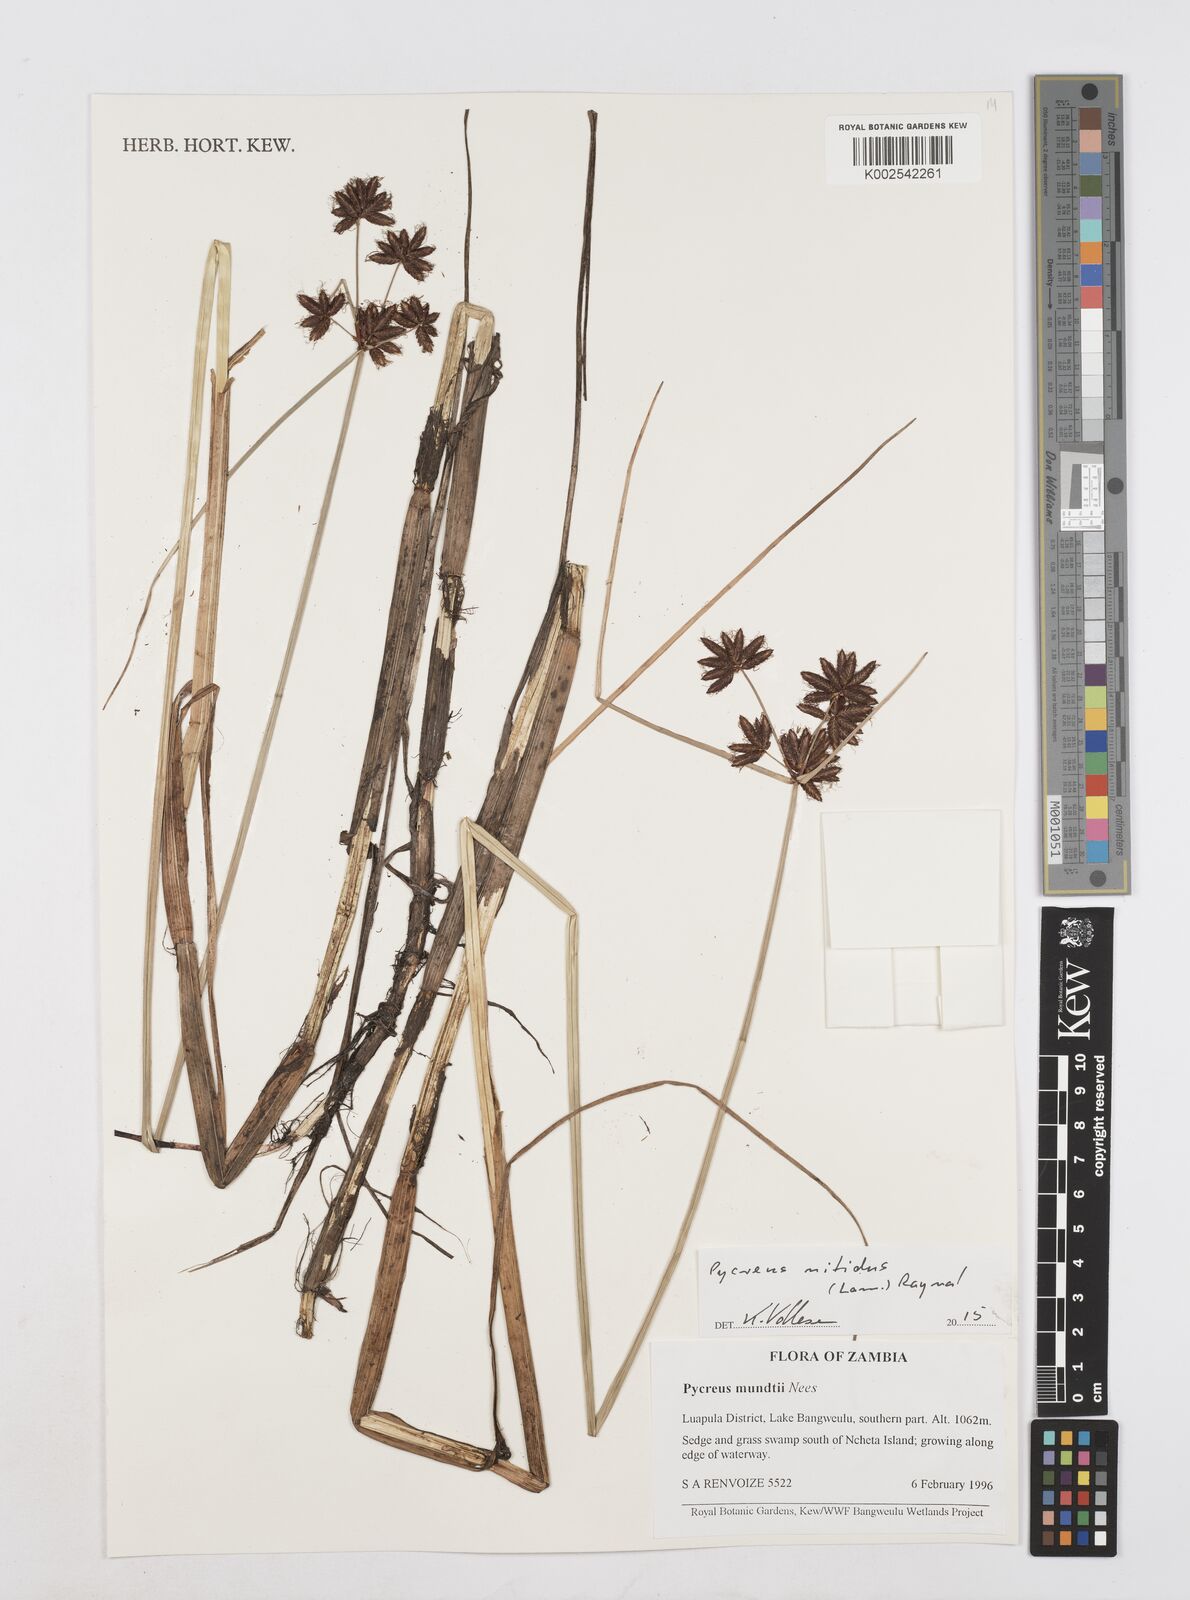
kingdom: Plantae
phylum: Tracheophyta
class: Liliopsida
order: Poales
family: Cyperaceae
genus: Cyperus
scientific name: Cyperus nitidus
